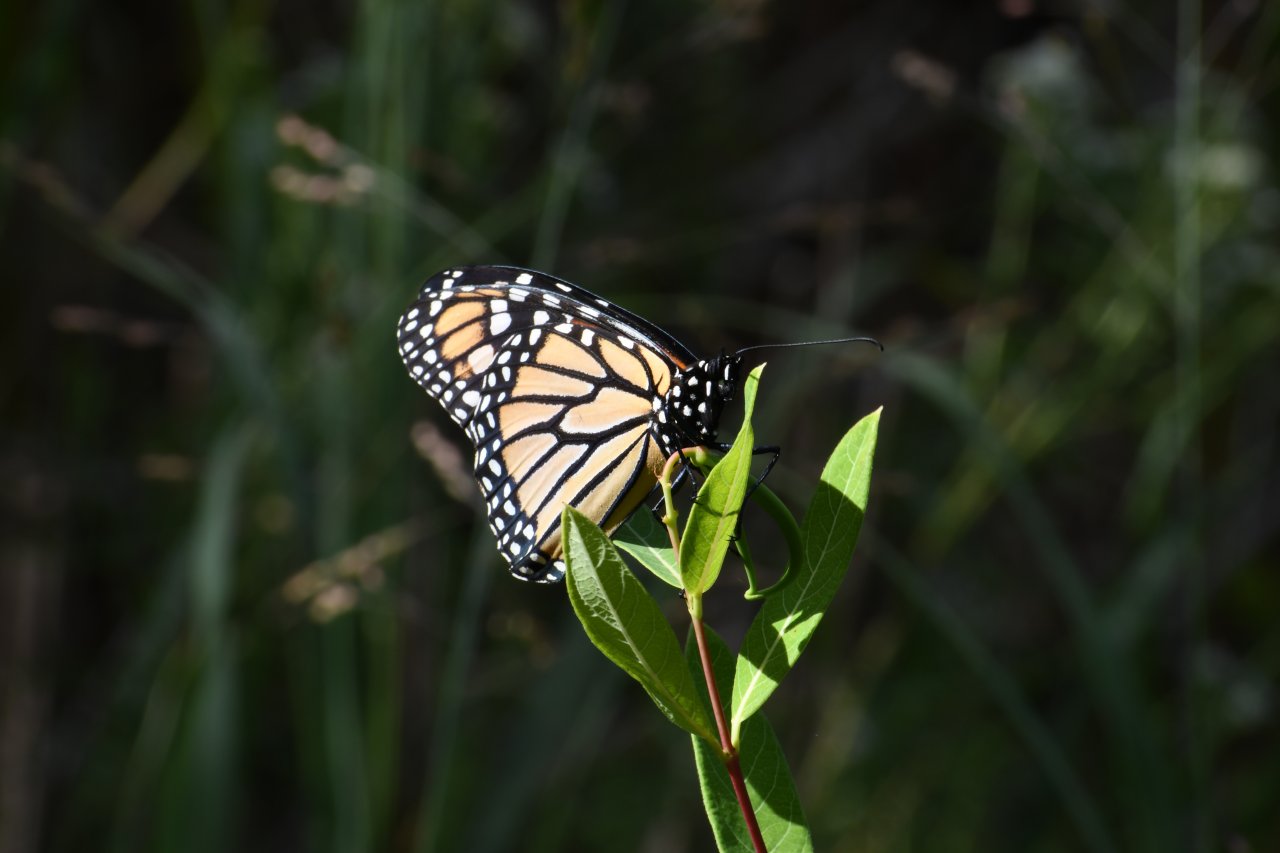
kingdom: Animalia
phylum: Arthropoda
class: Insecta
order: Lepidoptera
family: Nymphalidae
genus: Danaus
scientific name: Danaus plexippus
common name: Monarch
